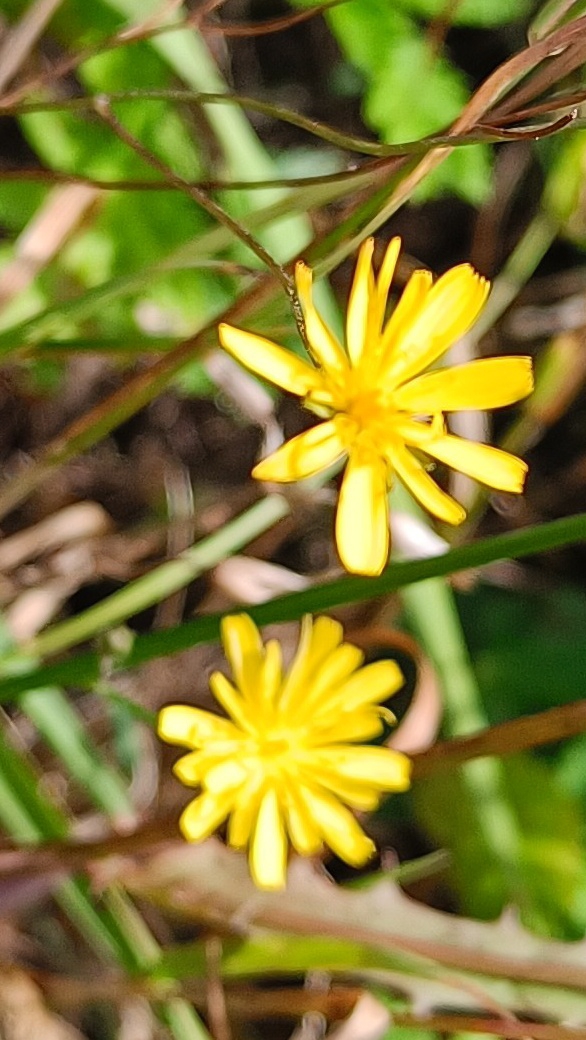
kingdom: Plantae
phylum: Tracheophyta
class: Magnoliopsida
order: Asterales
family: Asteraceae
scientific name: Asteraceae
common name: Kurvblomstfamilien
